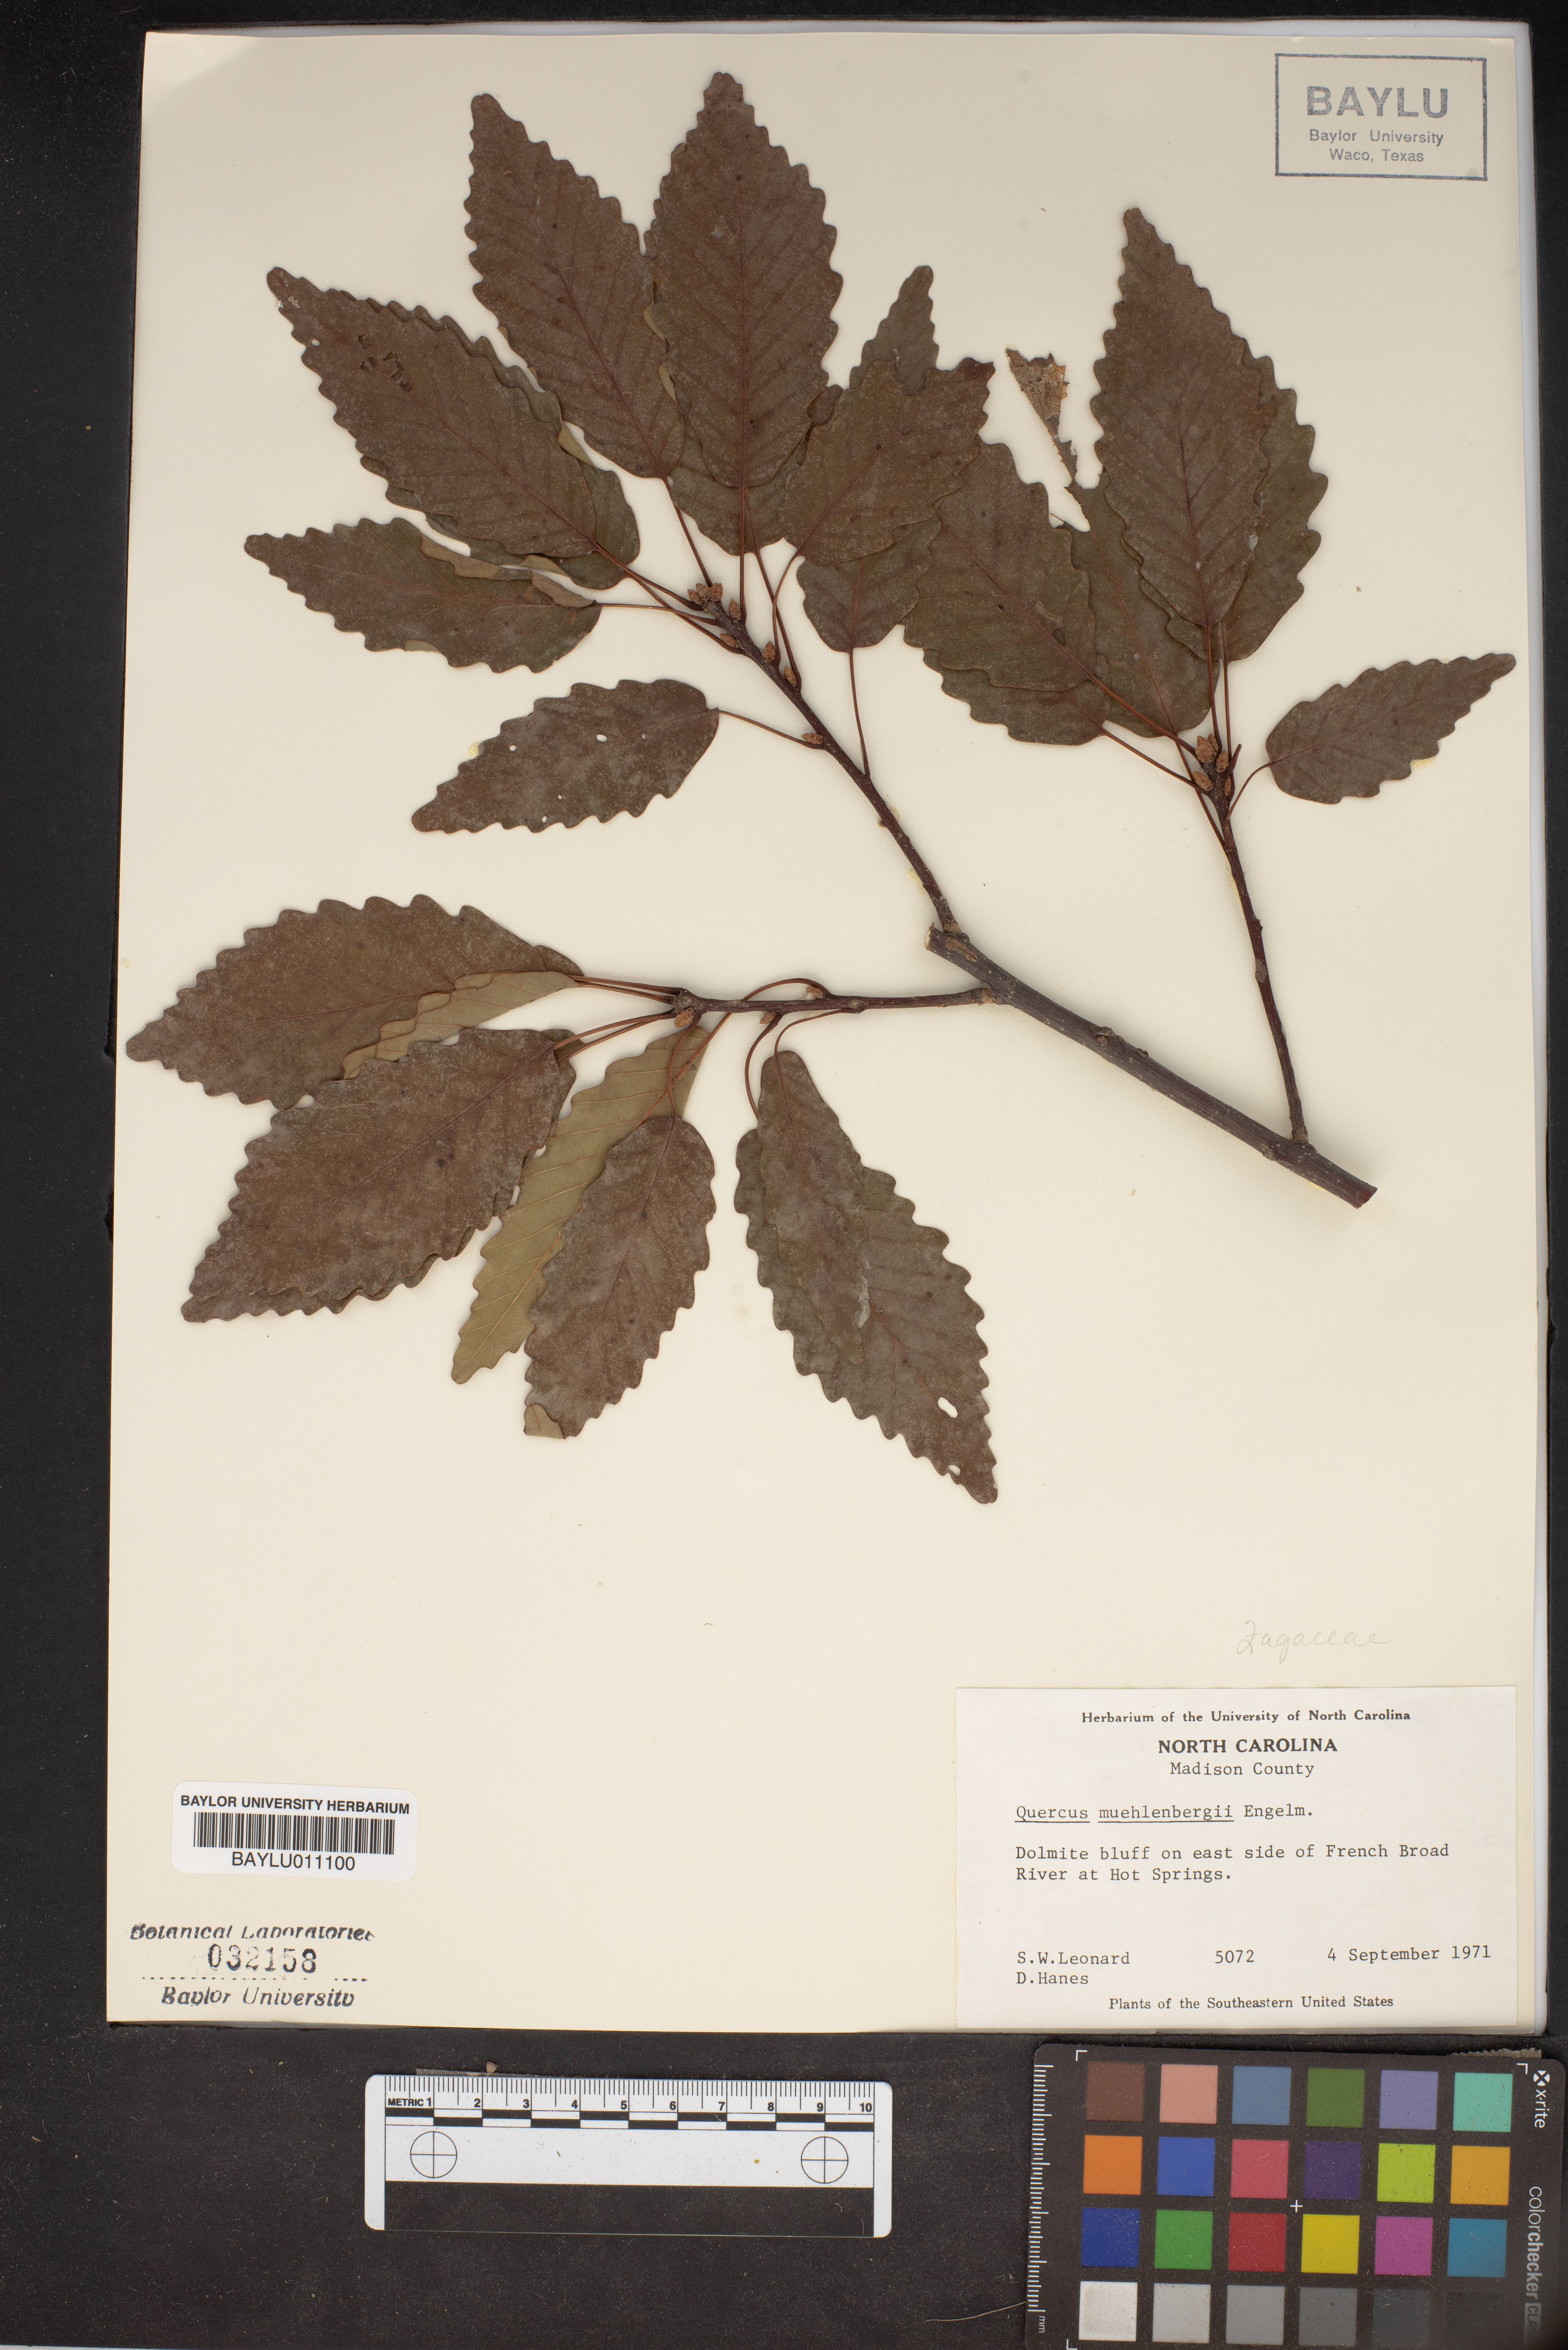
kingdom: Plantae
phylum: Tracheophyta
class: Magnoliopsida
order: Fagales
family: Fagaceae
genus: Quercus
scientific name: Quercus muehlenbergii
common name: Chinkapin oak
